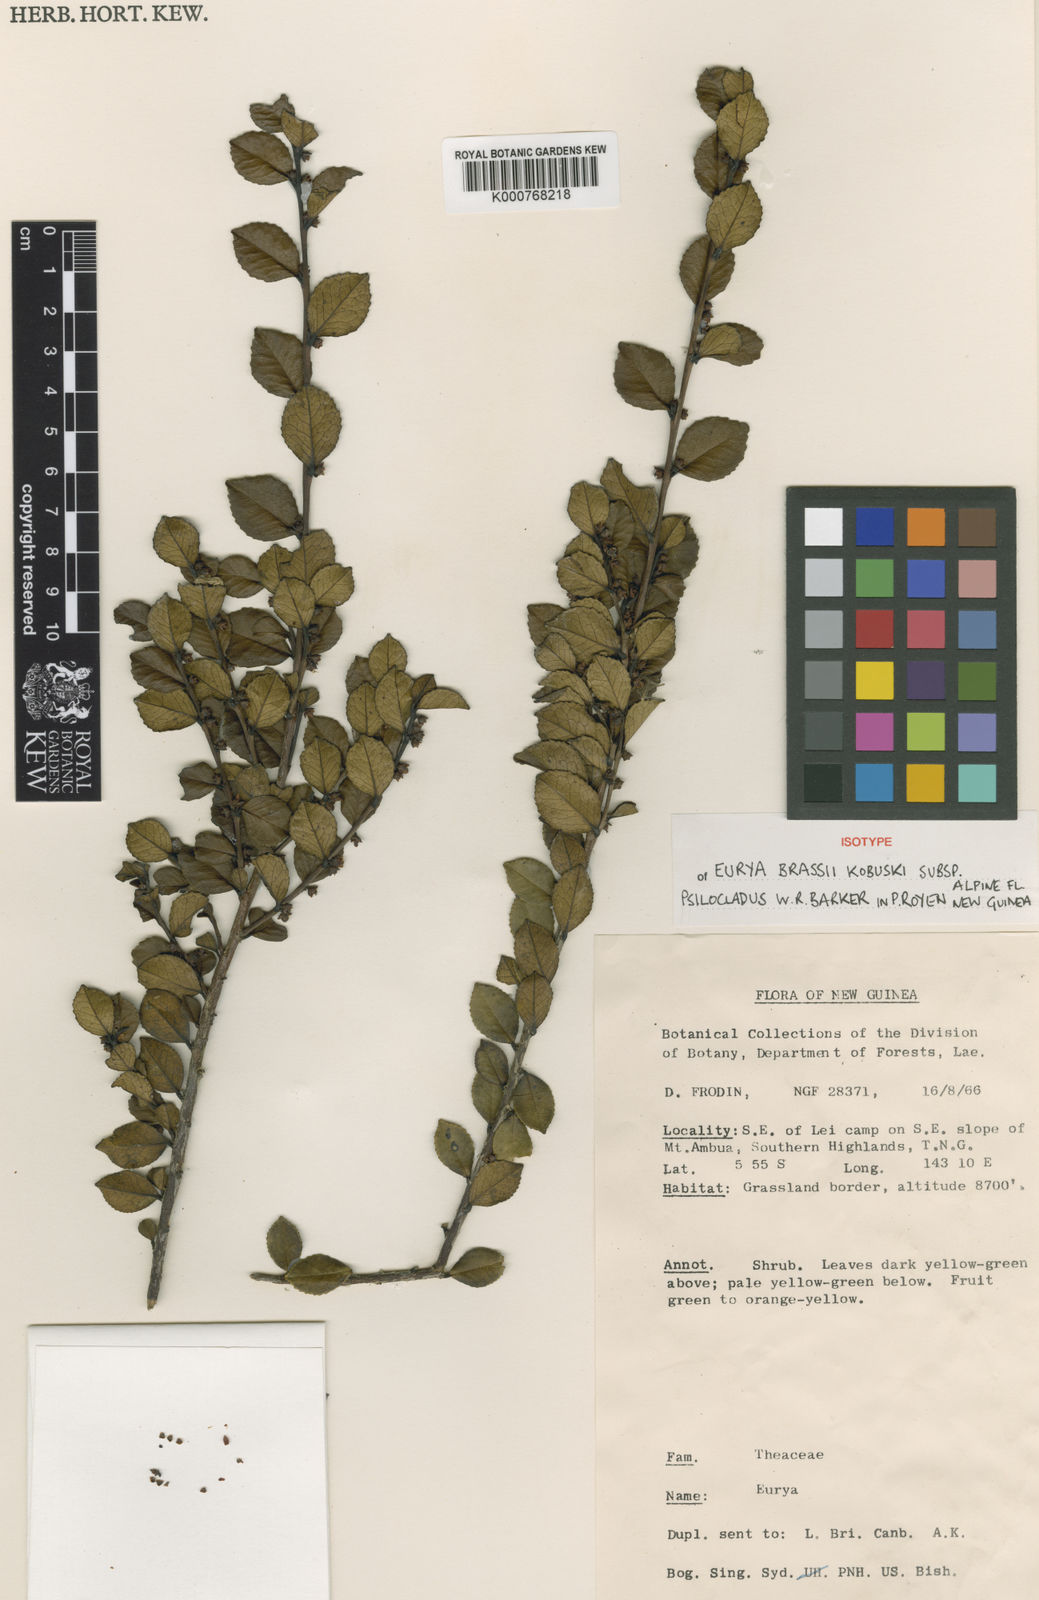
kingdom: Plantae
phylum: Tracheophyta
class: Magnoliopsida
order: Ericales
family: Pentaphylacaceae
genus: Eurya
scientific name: Eurya brassii
